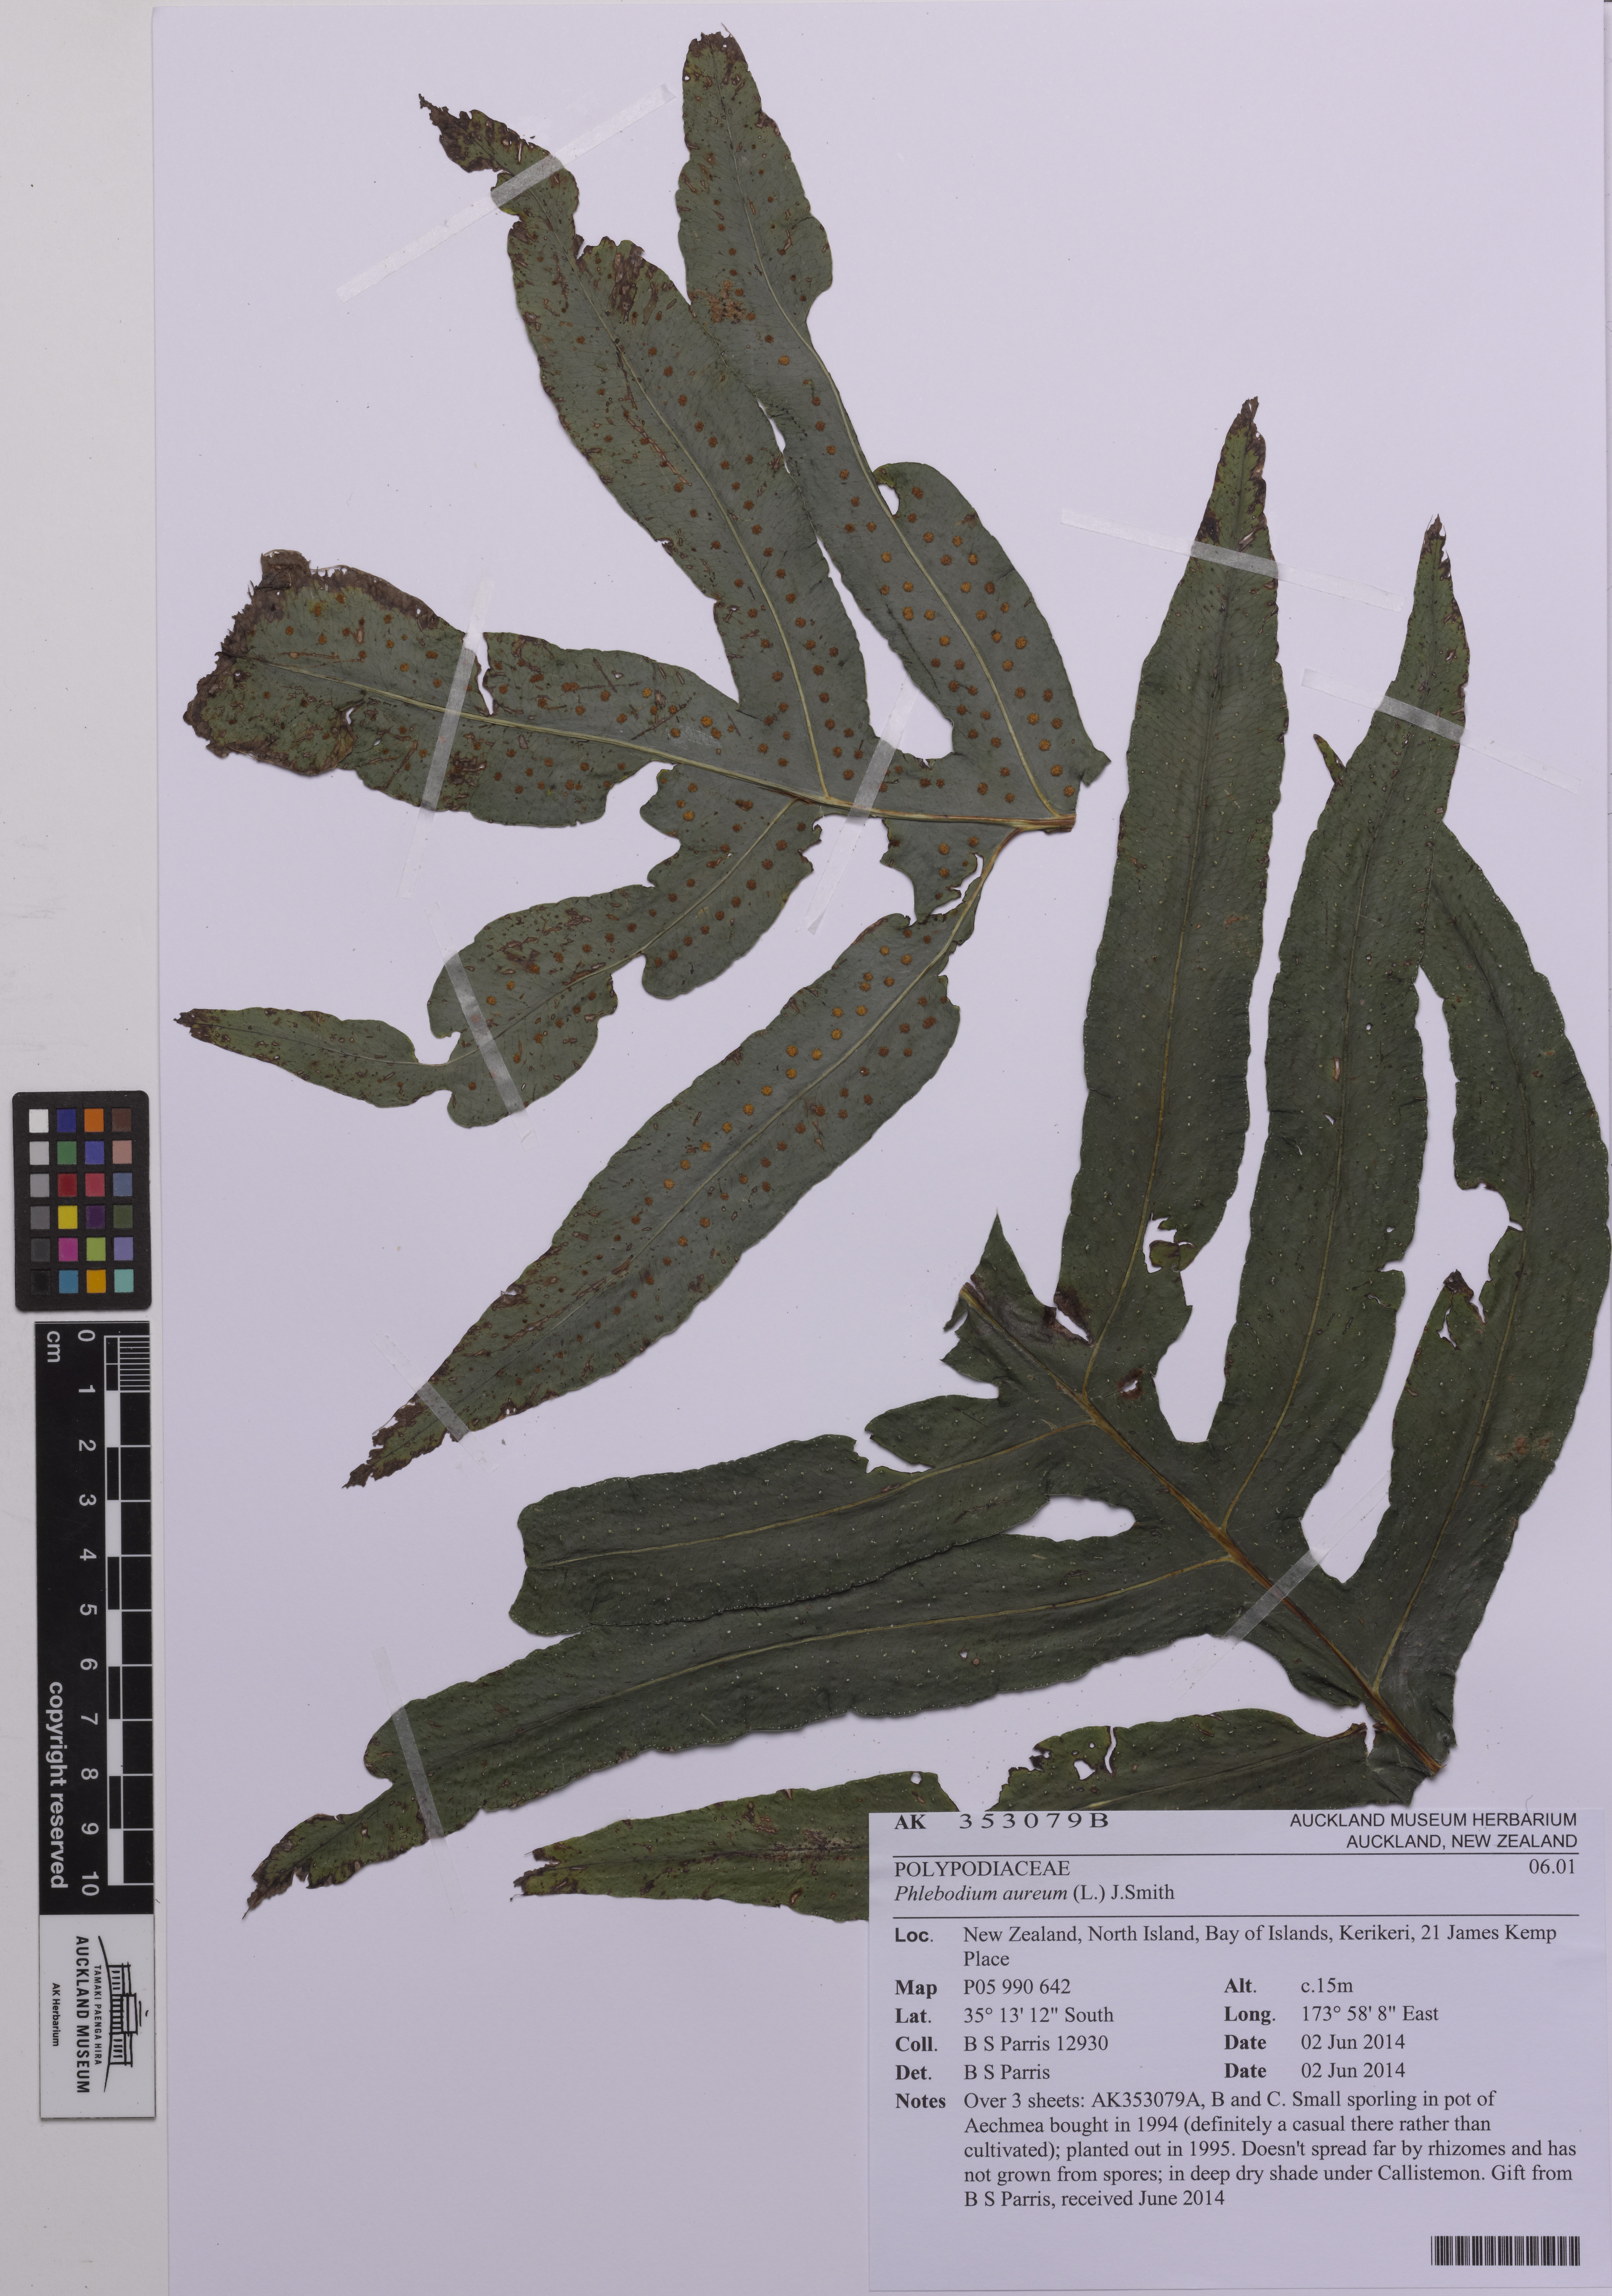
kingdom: Plantae
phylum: Tracheophyta
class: Polypodiopsida
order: Polypodiales
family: Polypodiaceae
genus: Phlebodium
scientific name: Phlebodium aureum
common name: Gold-foot fern
